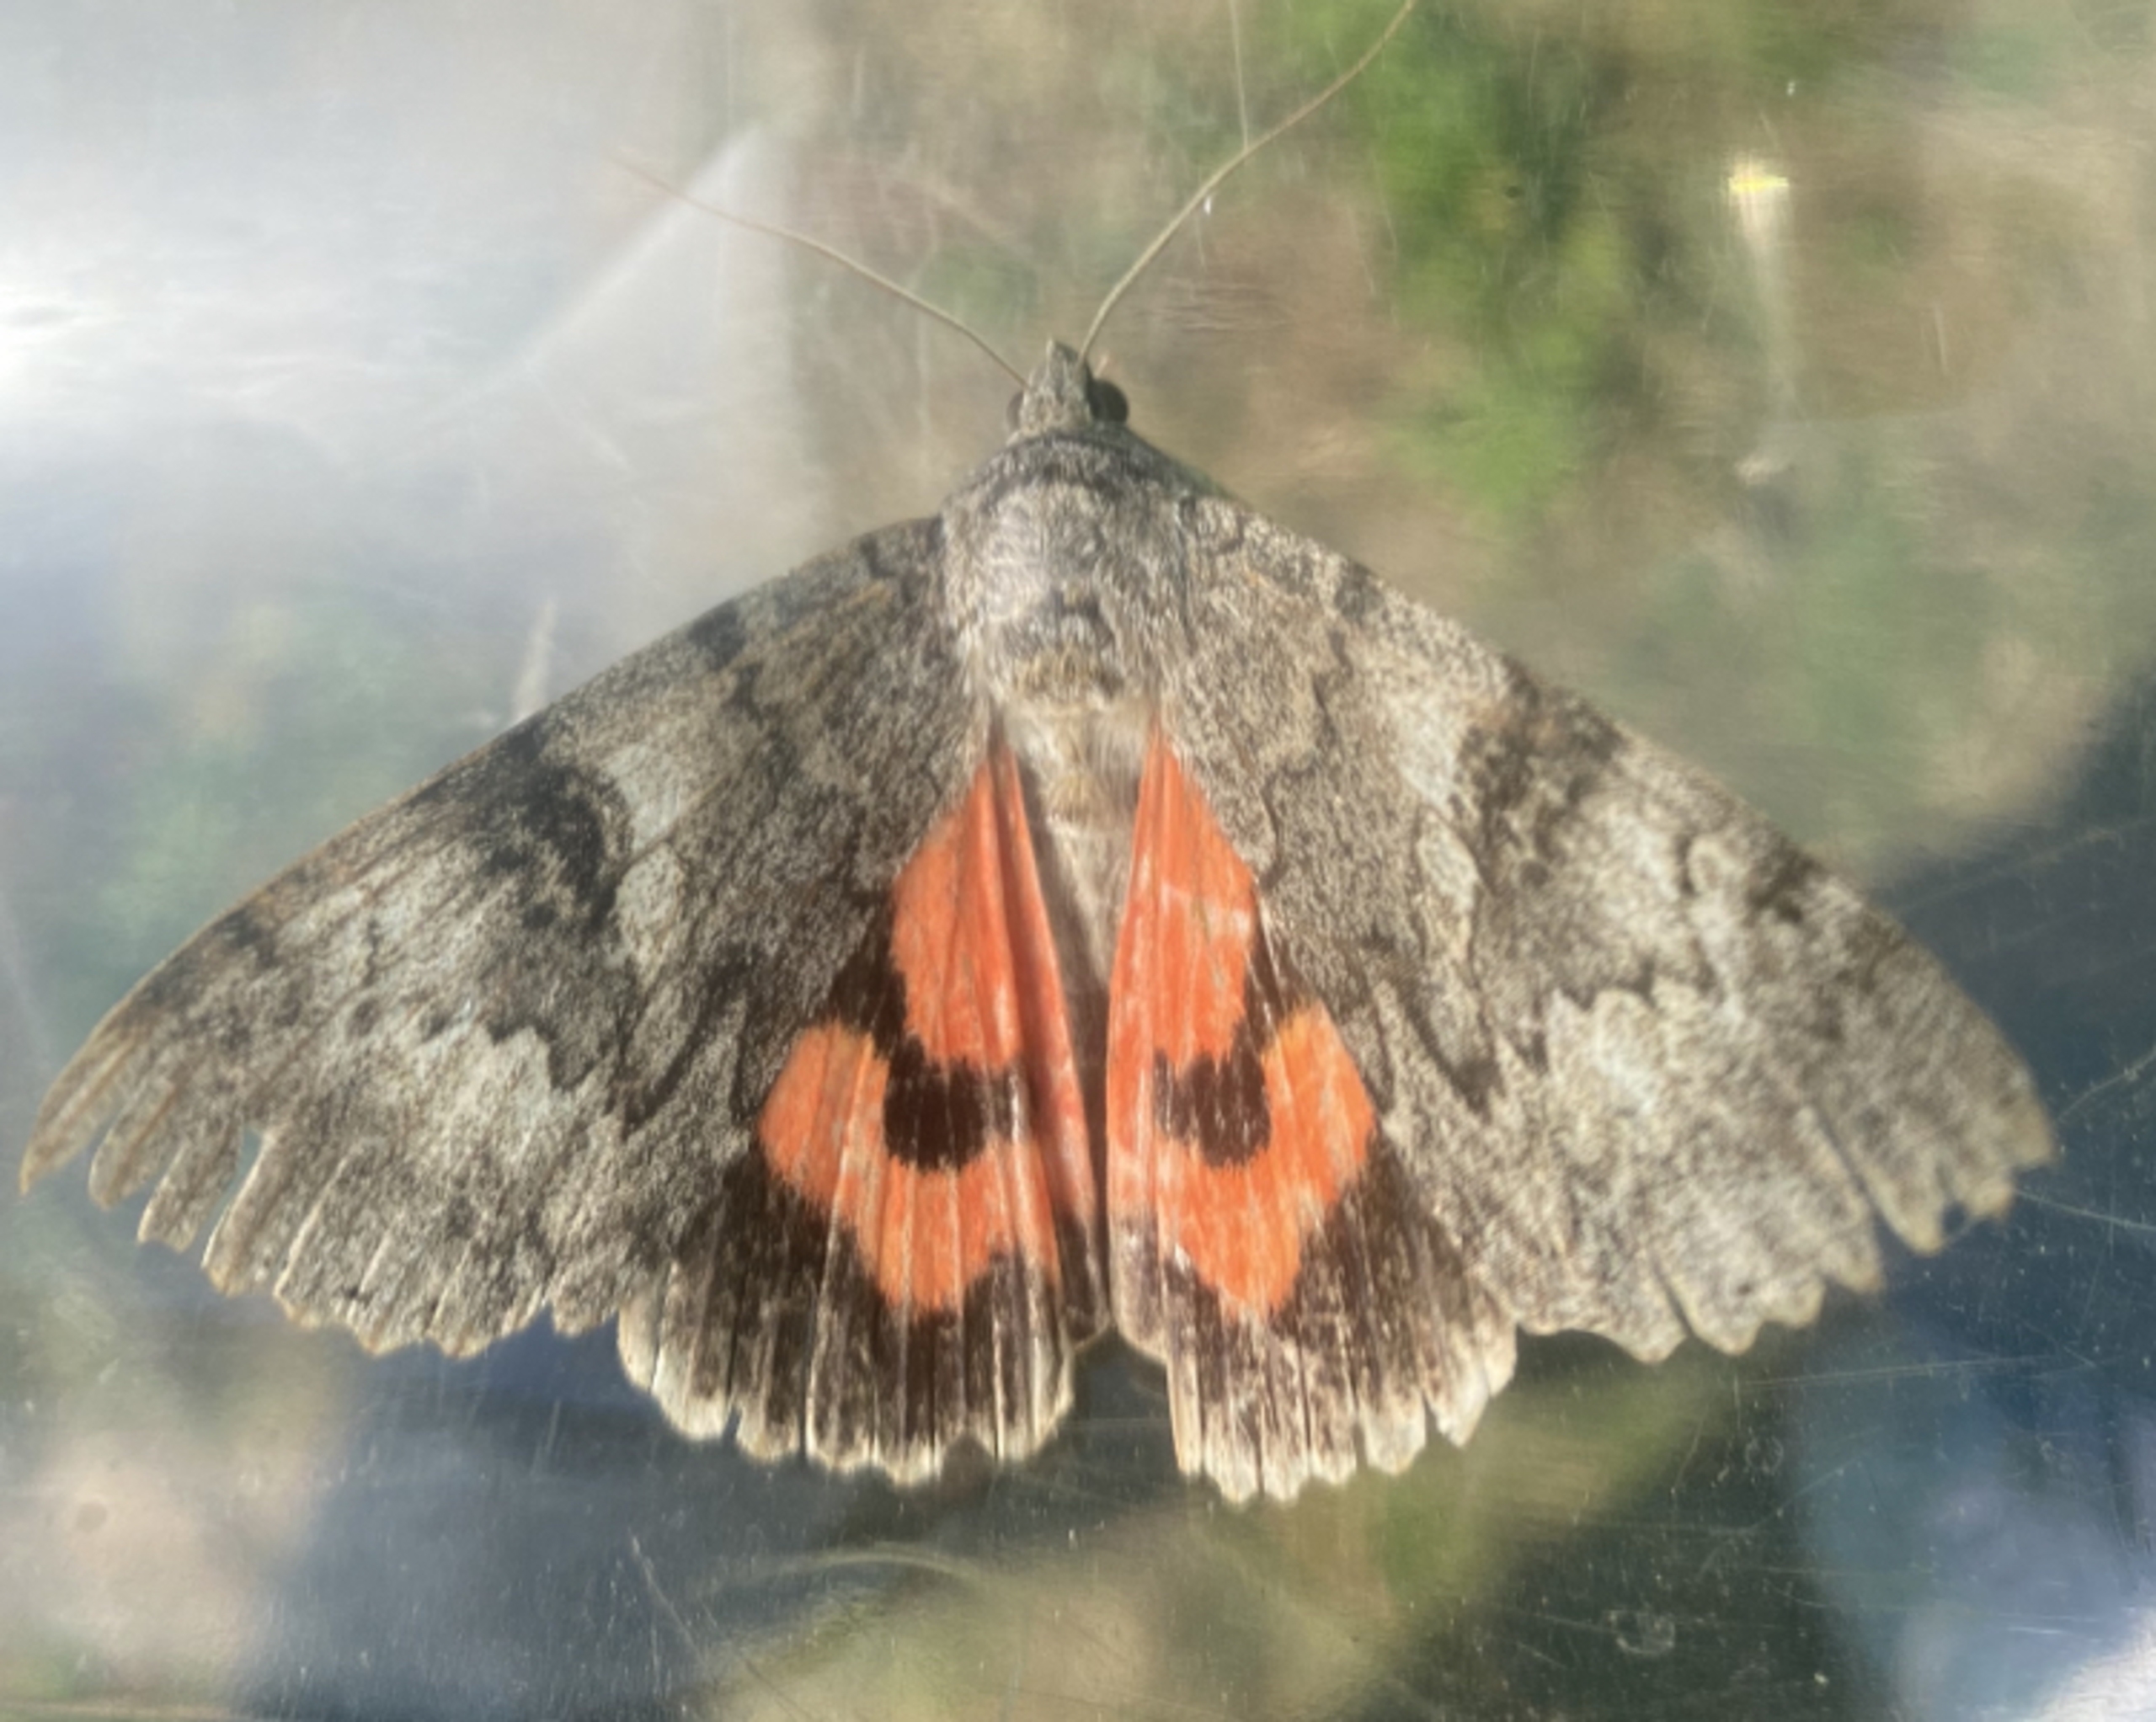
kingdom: Animalia
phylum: Arthropoda
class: Insecta
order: Lepidoptera
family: Erebidae
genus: Catocala
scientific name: Catocala nupta
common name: Rødt ordensbånd
